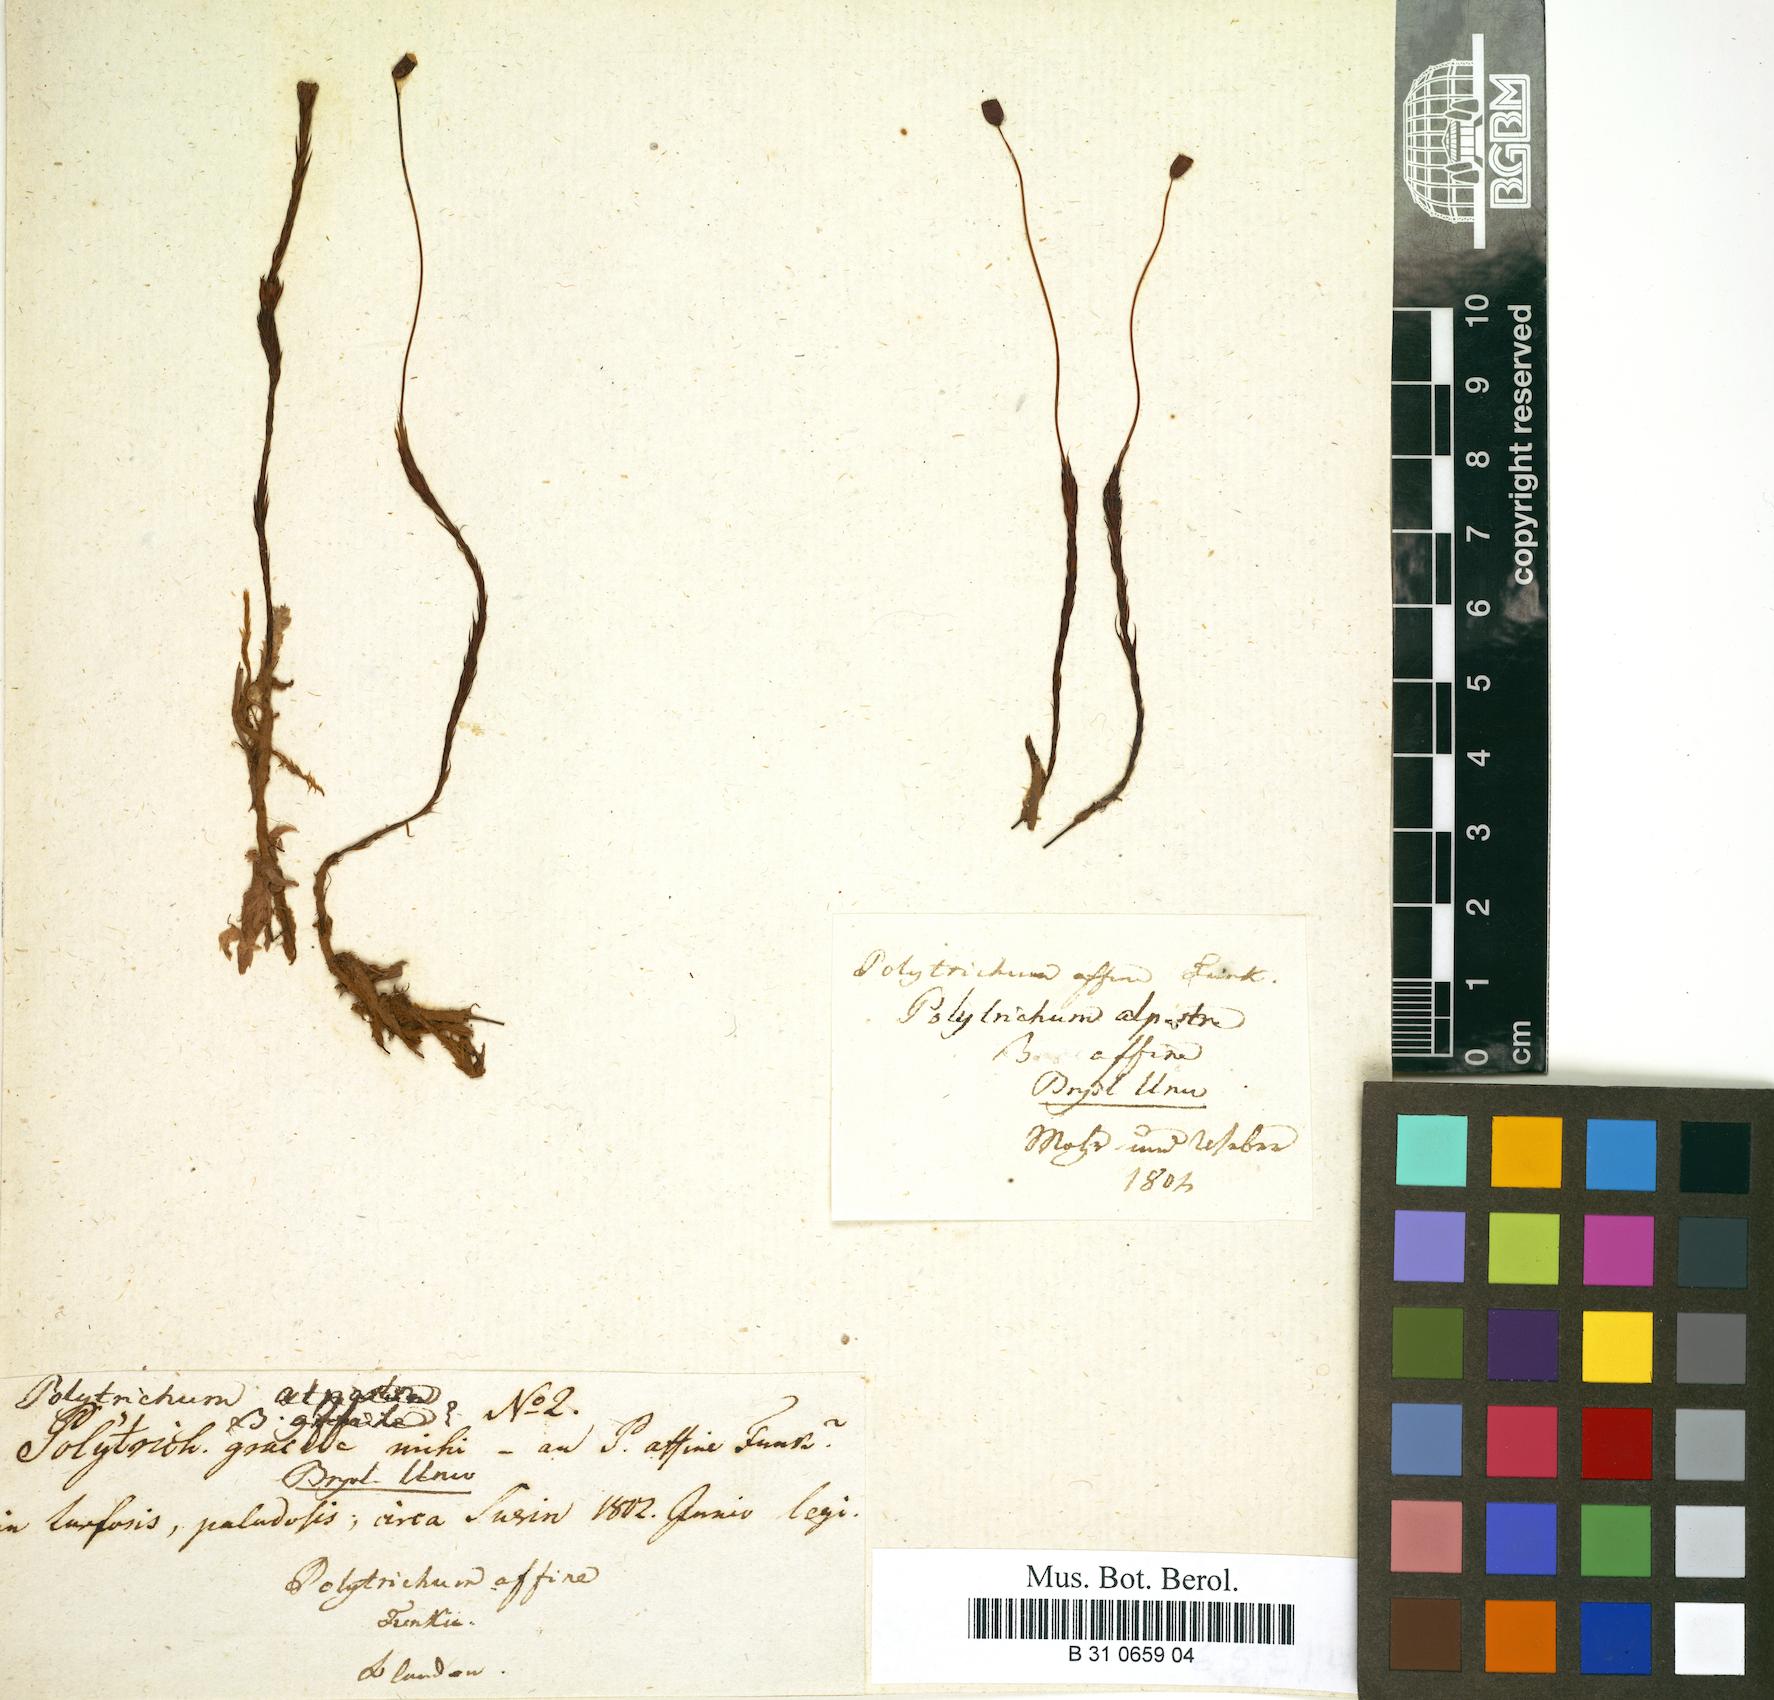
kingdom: Plantae
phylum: Bryophyta
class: Polytrichopsida
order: Polytrichales
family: Polytrichaceae
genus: Polytrichum
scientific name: Polytrichum strictum
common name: Bog haircap moss
